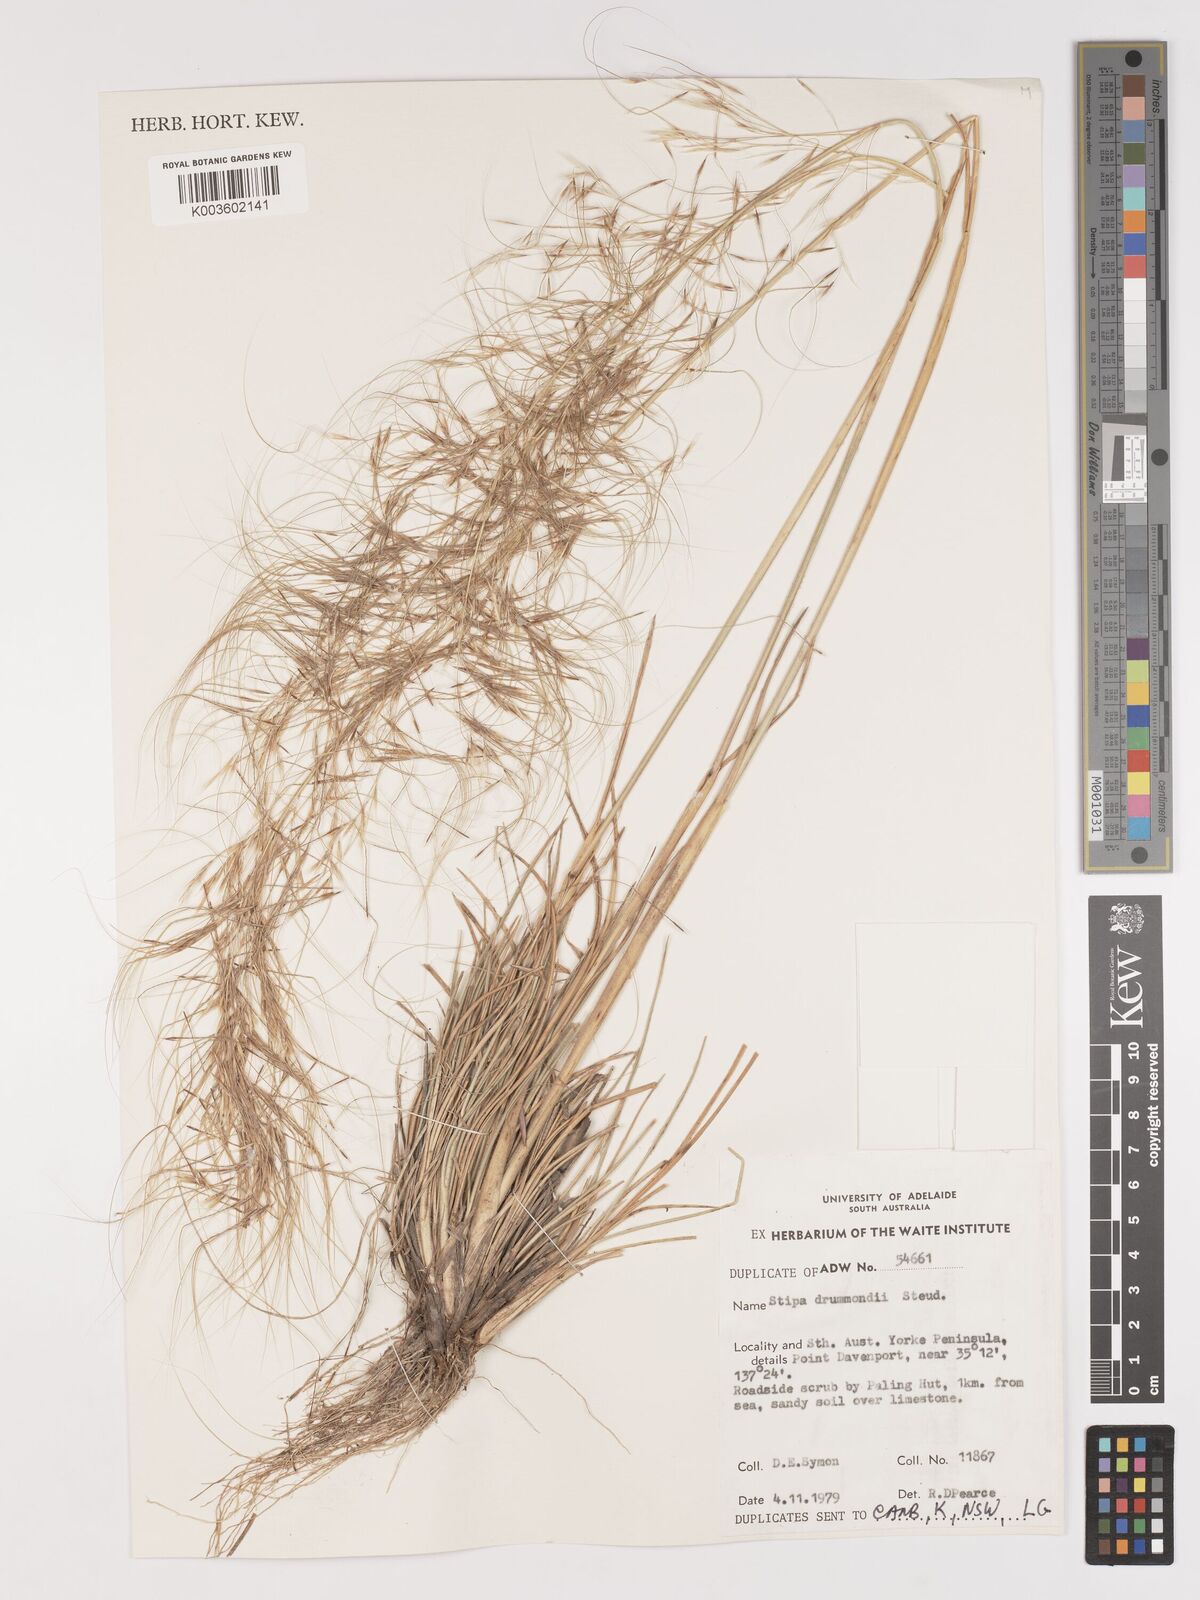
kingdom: Plantae
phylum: Tracheophyta
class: Liliopsida
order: Poales
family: Poaceae
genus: Austrostipa
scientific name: Austrostipa drummondii
